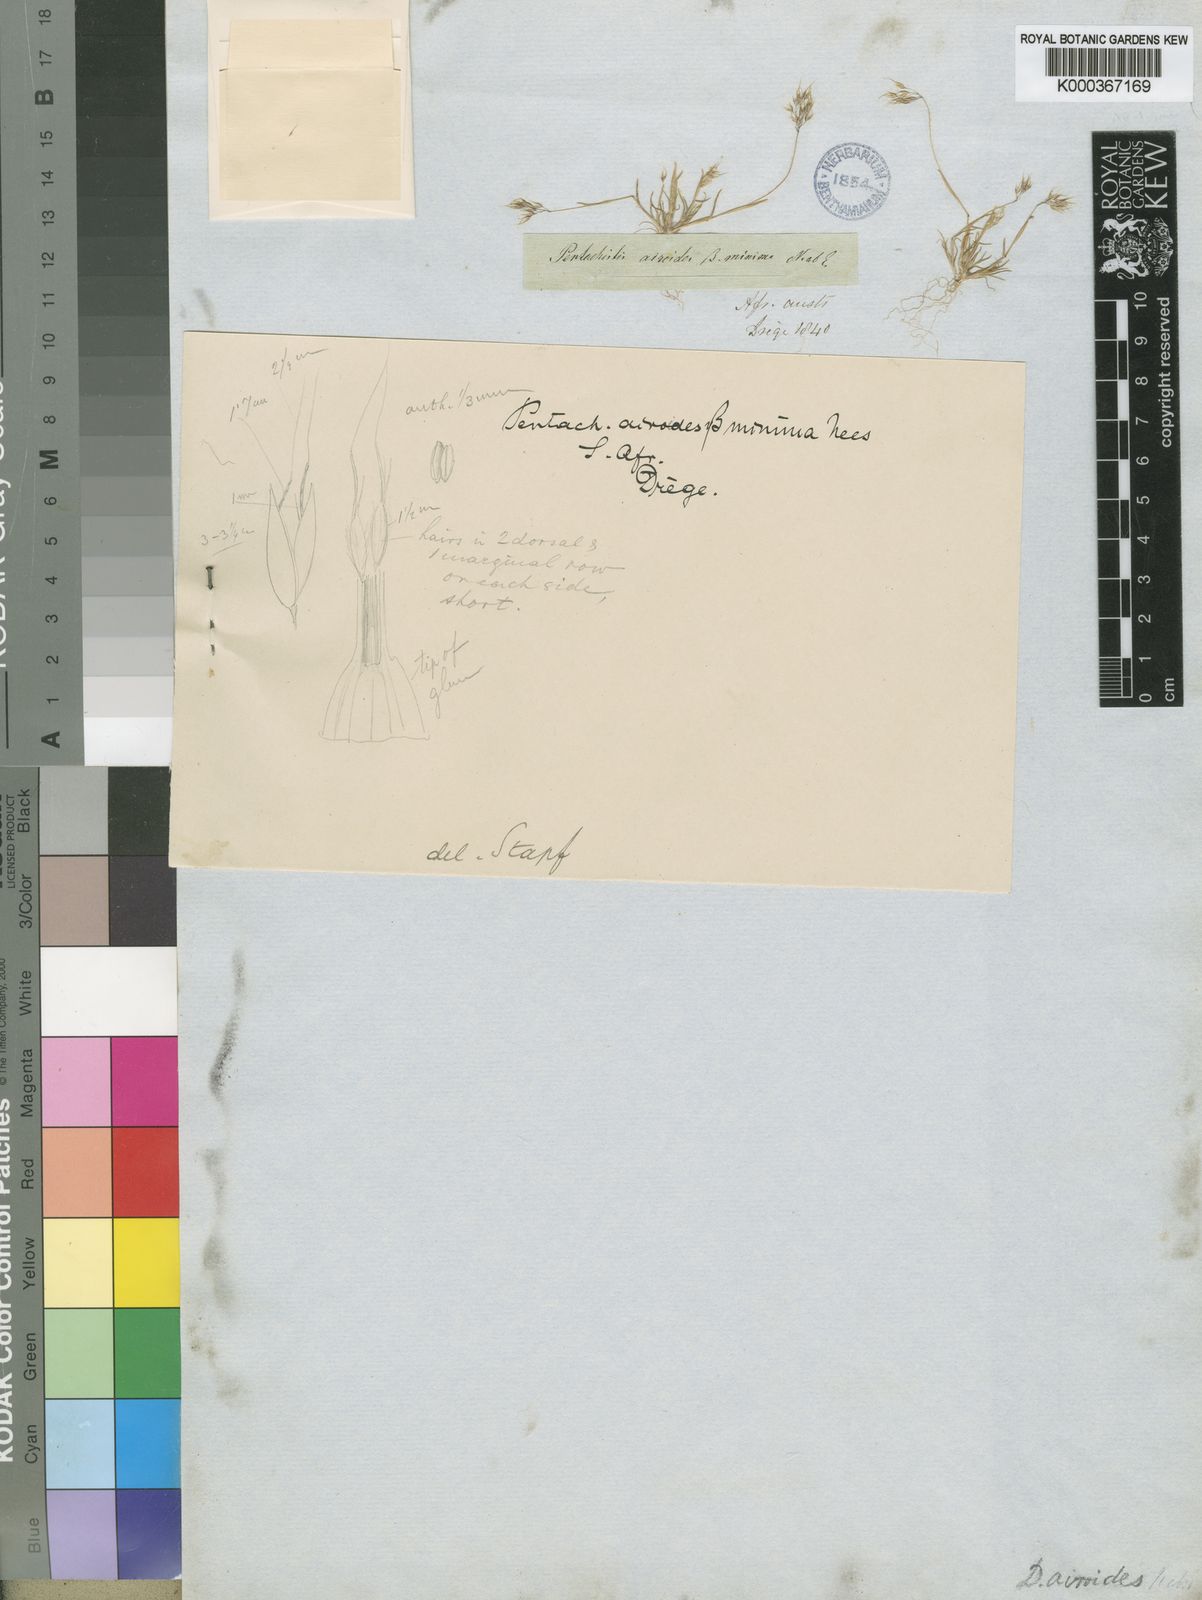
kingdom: Plantae
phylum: Tracheophyta
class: Liliopsida
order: Poales
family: Poaceae
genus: Pentameris
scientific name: Pentameris airoides
